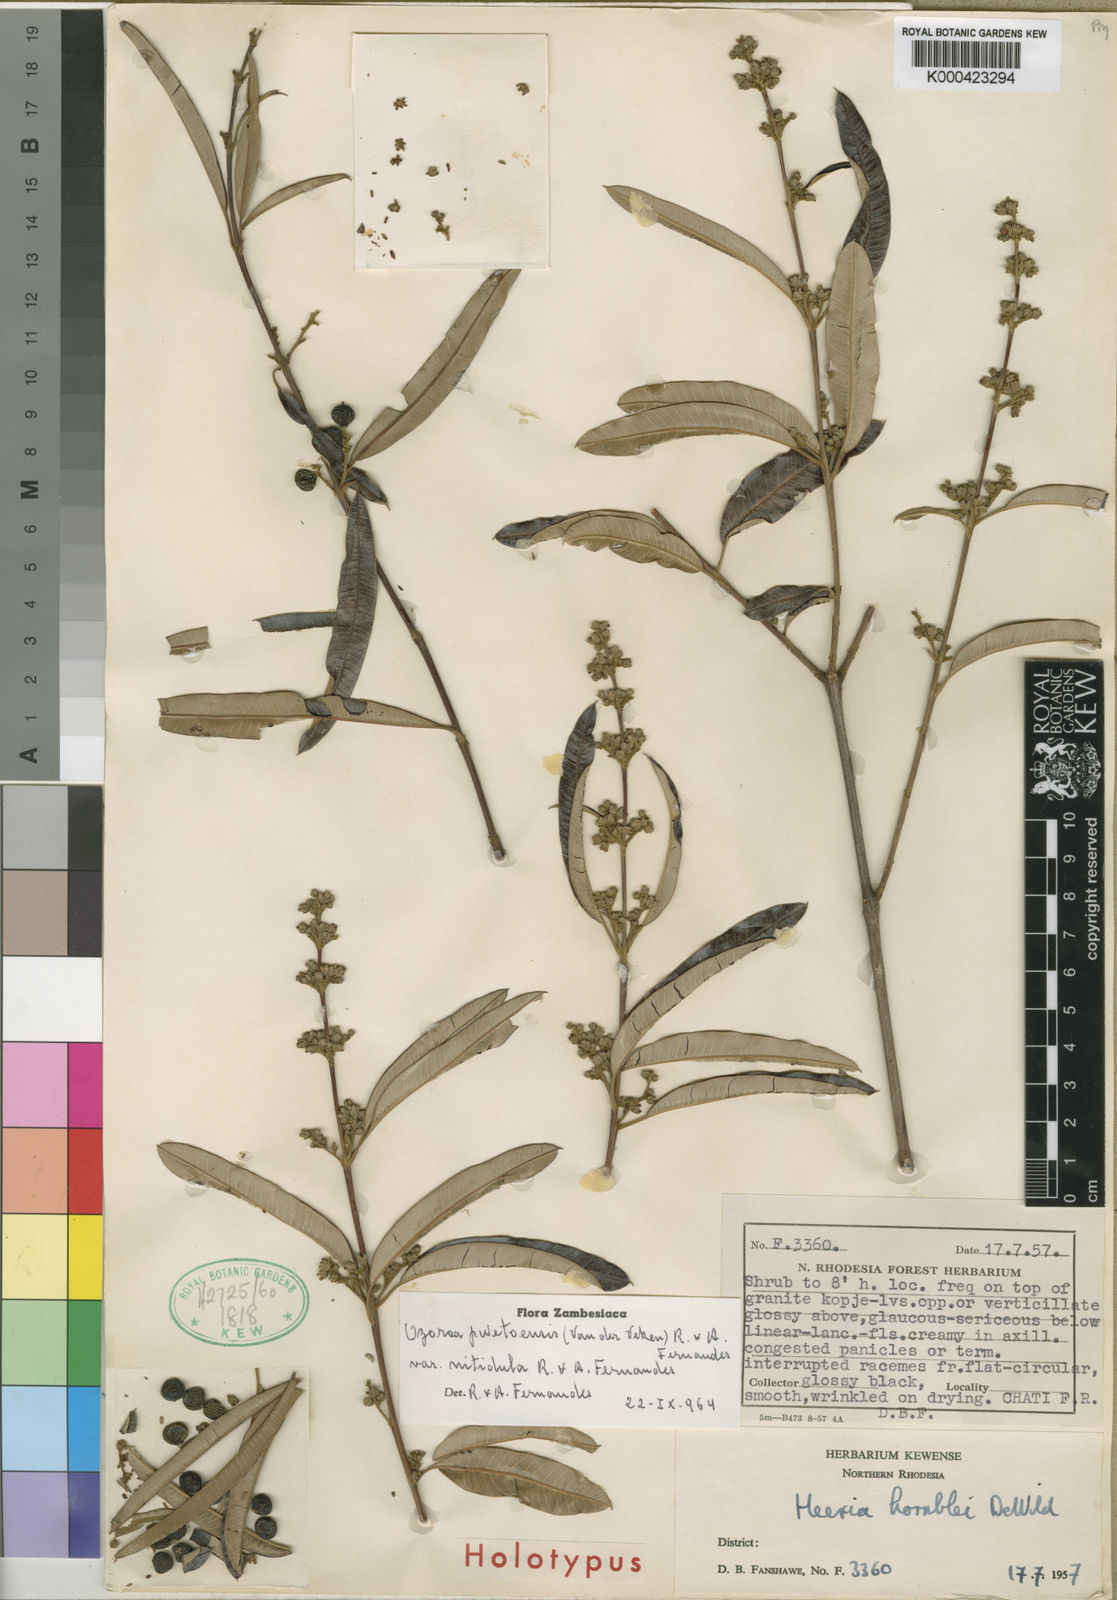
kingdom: Plantae
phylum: Tracheophyta
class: Magnoliopsida
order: Sapindales
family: Anacardiaceae
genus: Ozoroa
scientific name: Ozoroa pwetoensis
